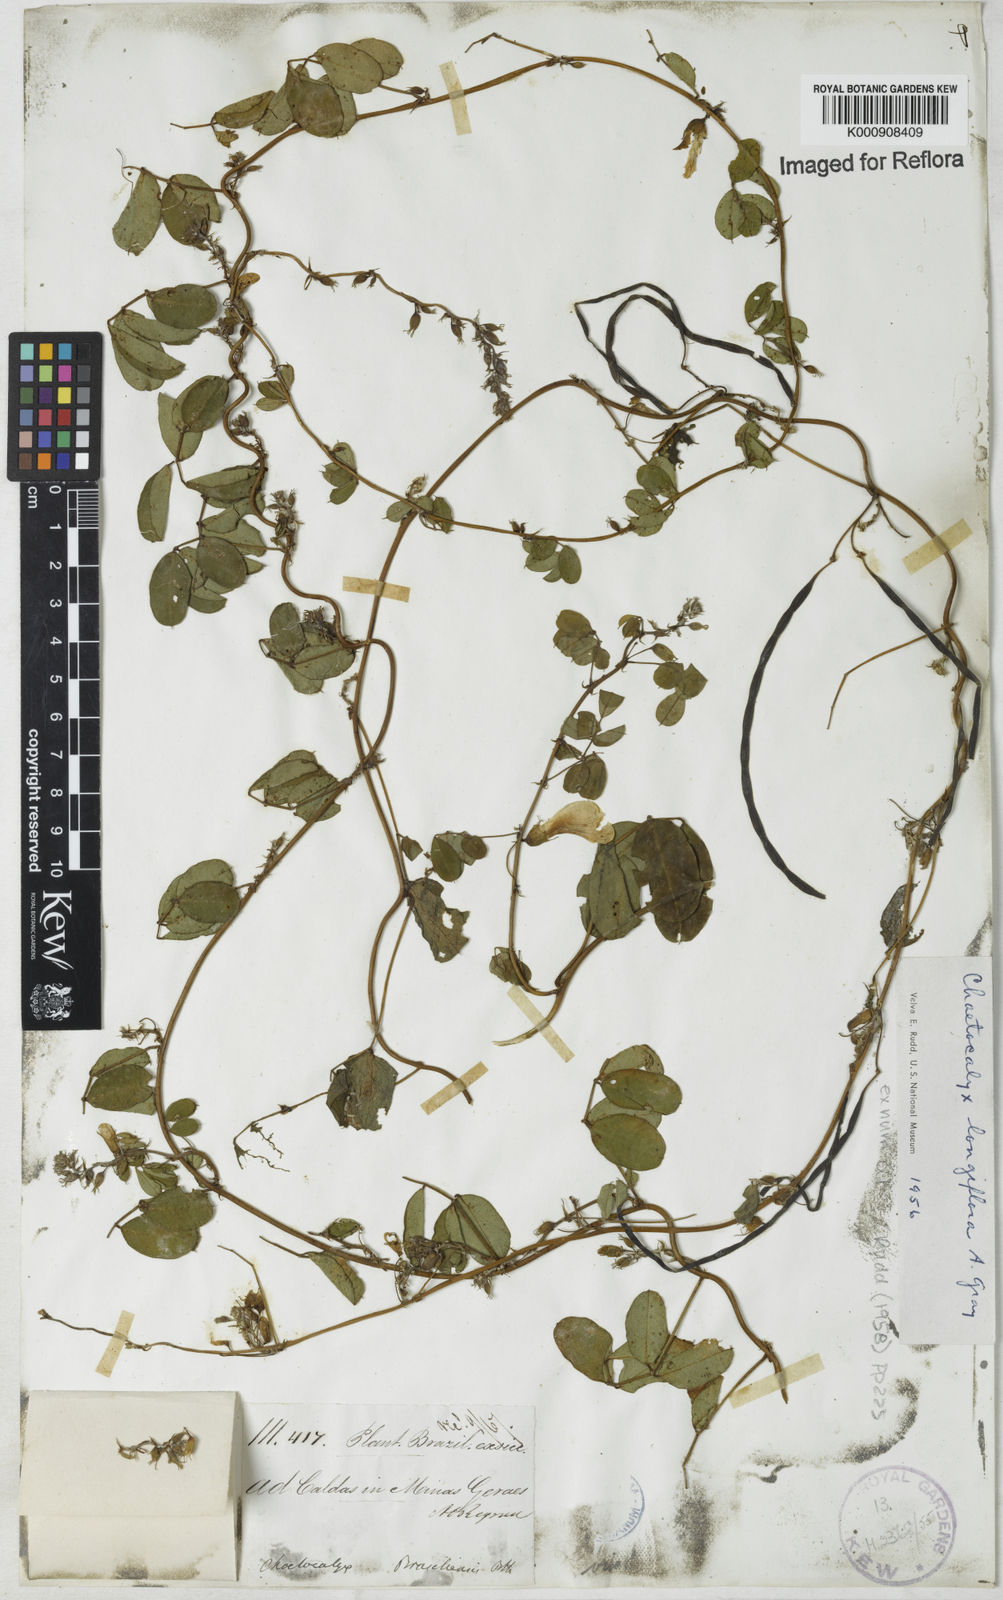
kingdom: Plantae
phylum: Tracheophyta
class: Magnoliopsida
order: Fabales
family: Fabaceae
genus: Nissolia
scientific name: Nissolia longiflora
